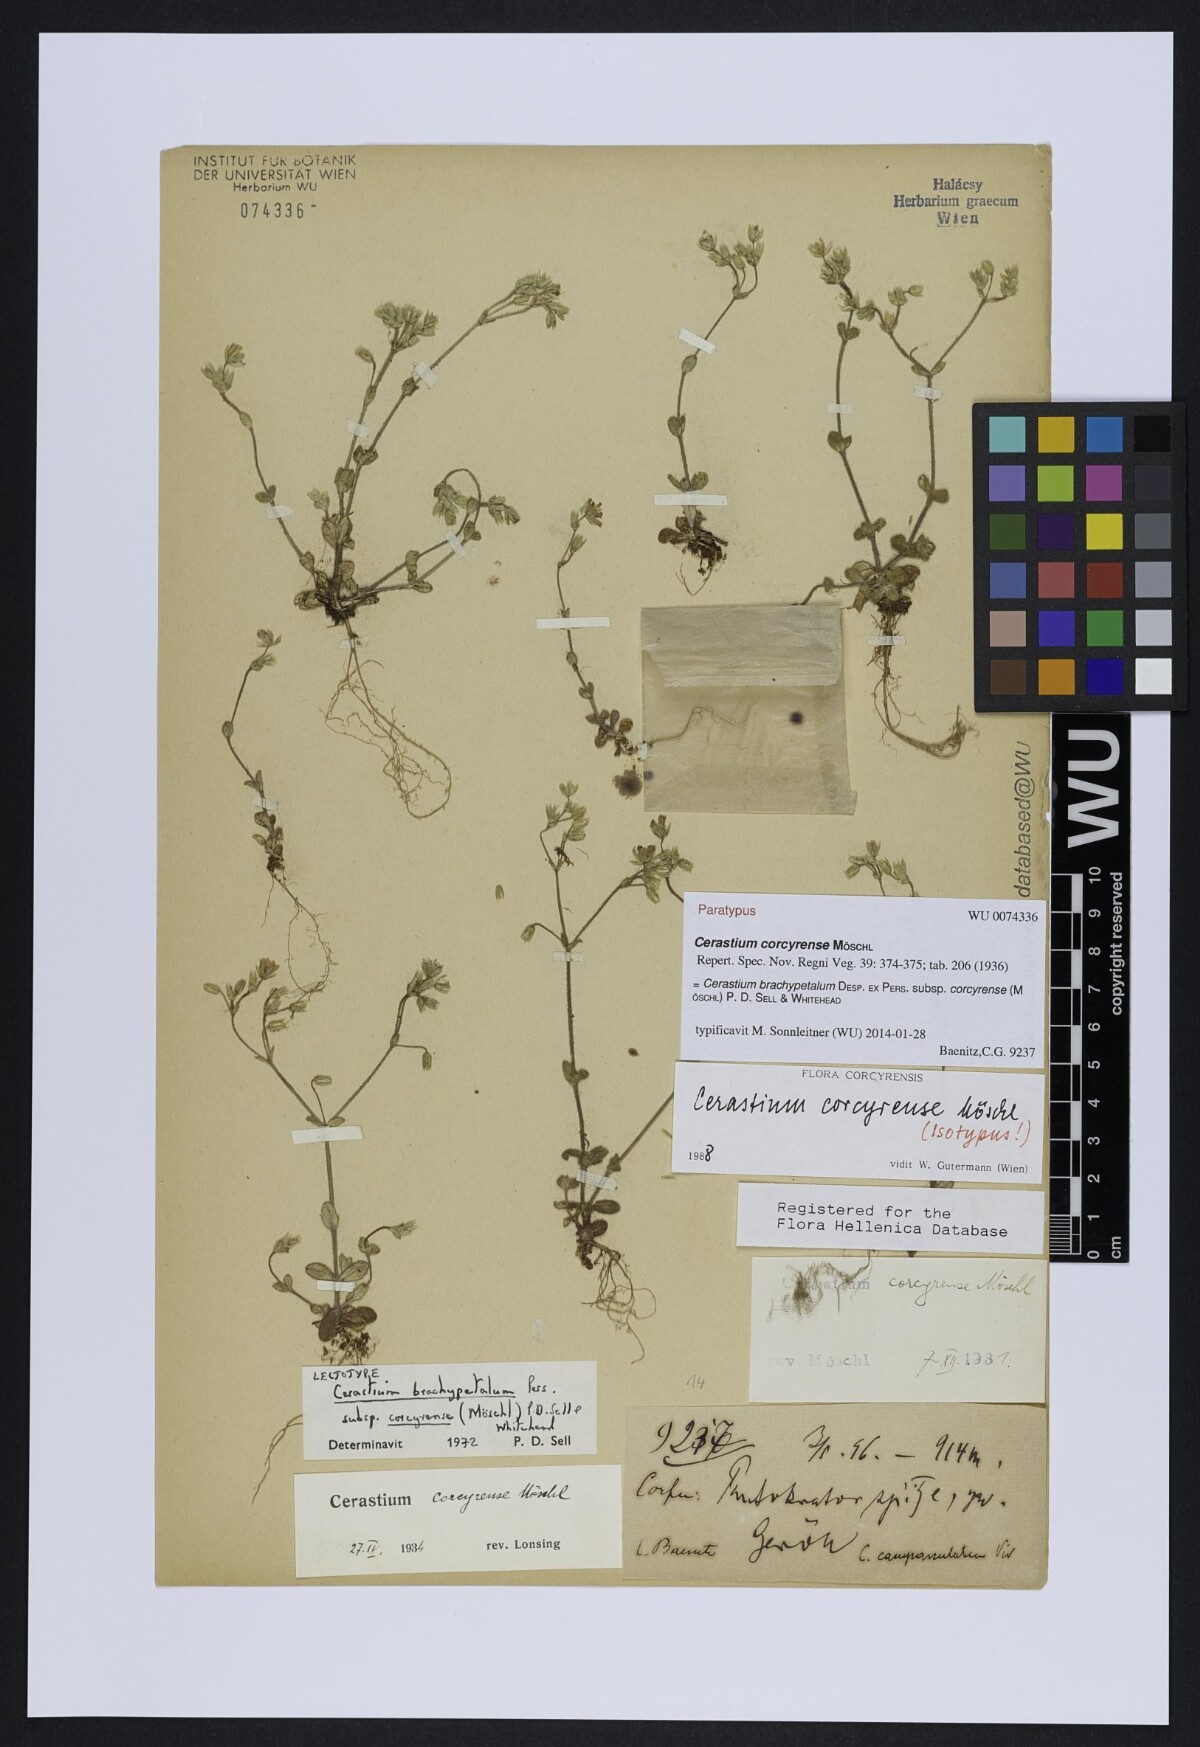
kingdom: Plantae
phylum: Tracheophyta
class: Magnoliopsida
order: Caryophyllales
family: Caryophyllaceae
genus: Cerastium
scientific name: Cerastium brachypetalum
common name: Grey mouse-ear
